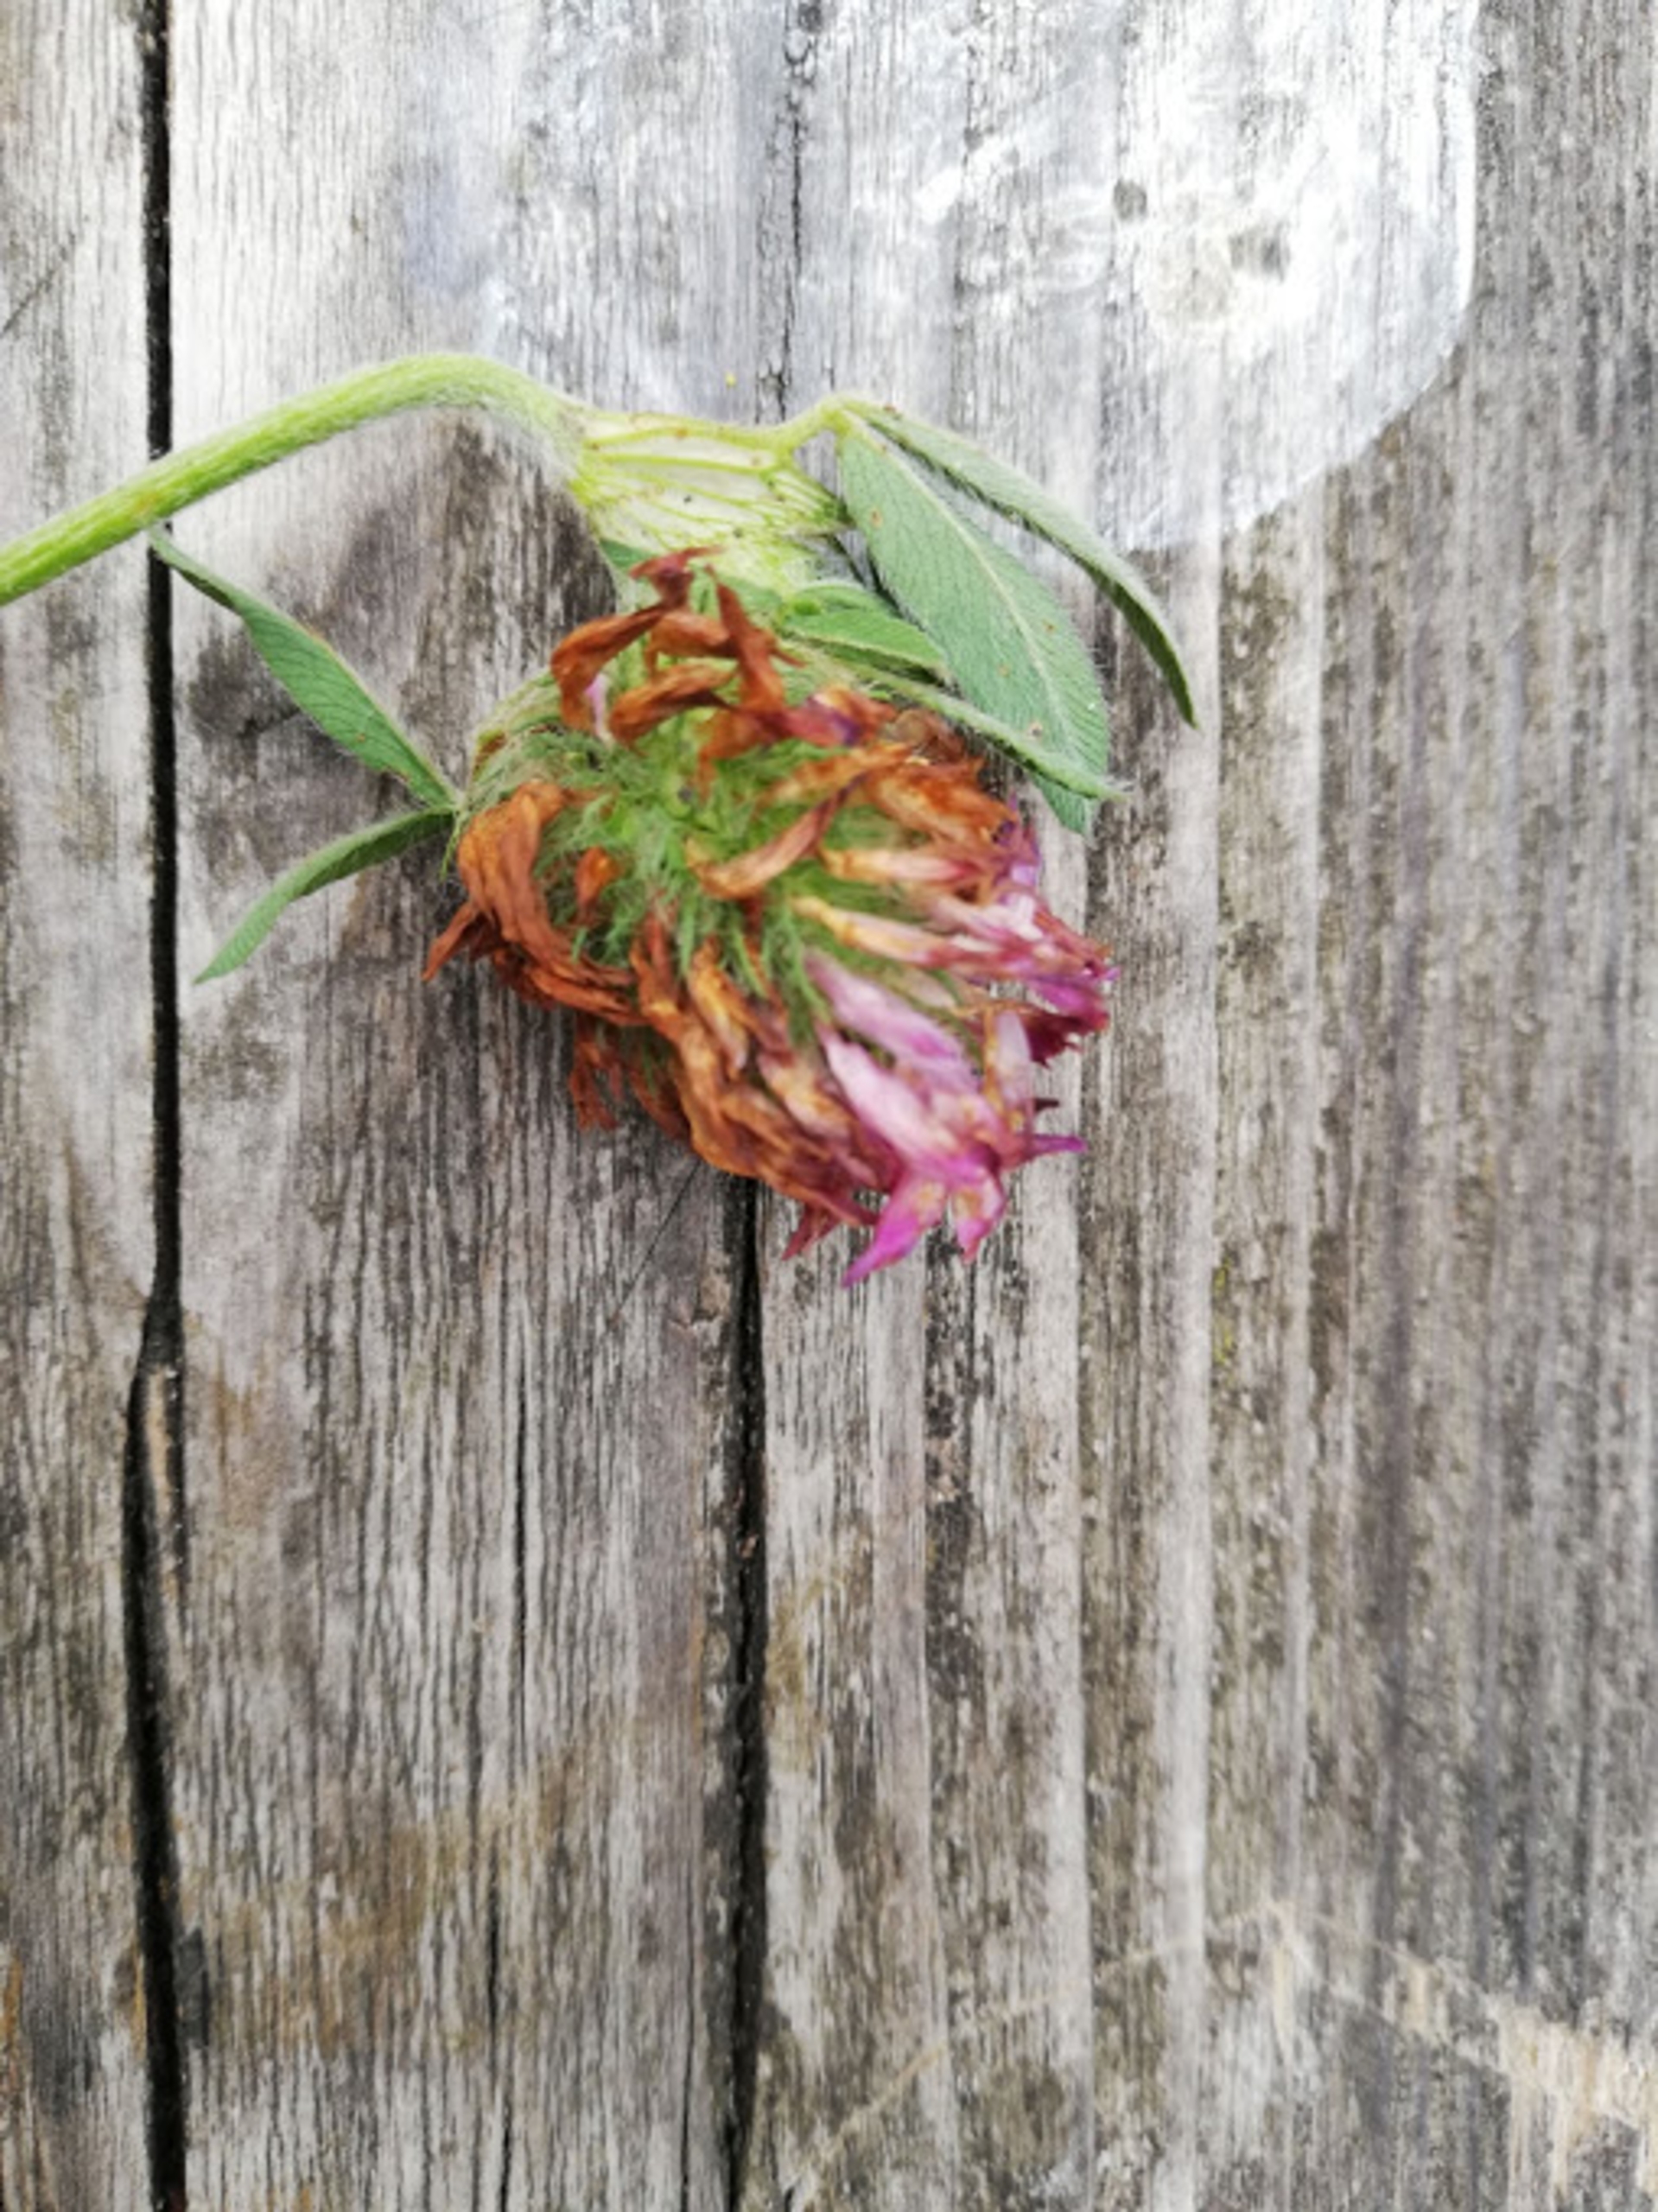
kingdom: Plantae
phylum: Tracheophyta
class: Magnoliopsida
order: Fabales
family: Fabaceae
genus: Trifolium
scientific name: Trifolium pratense
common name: Rød-kløver
